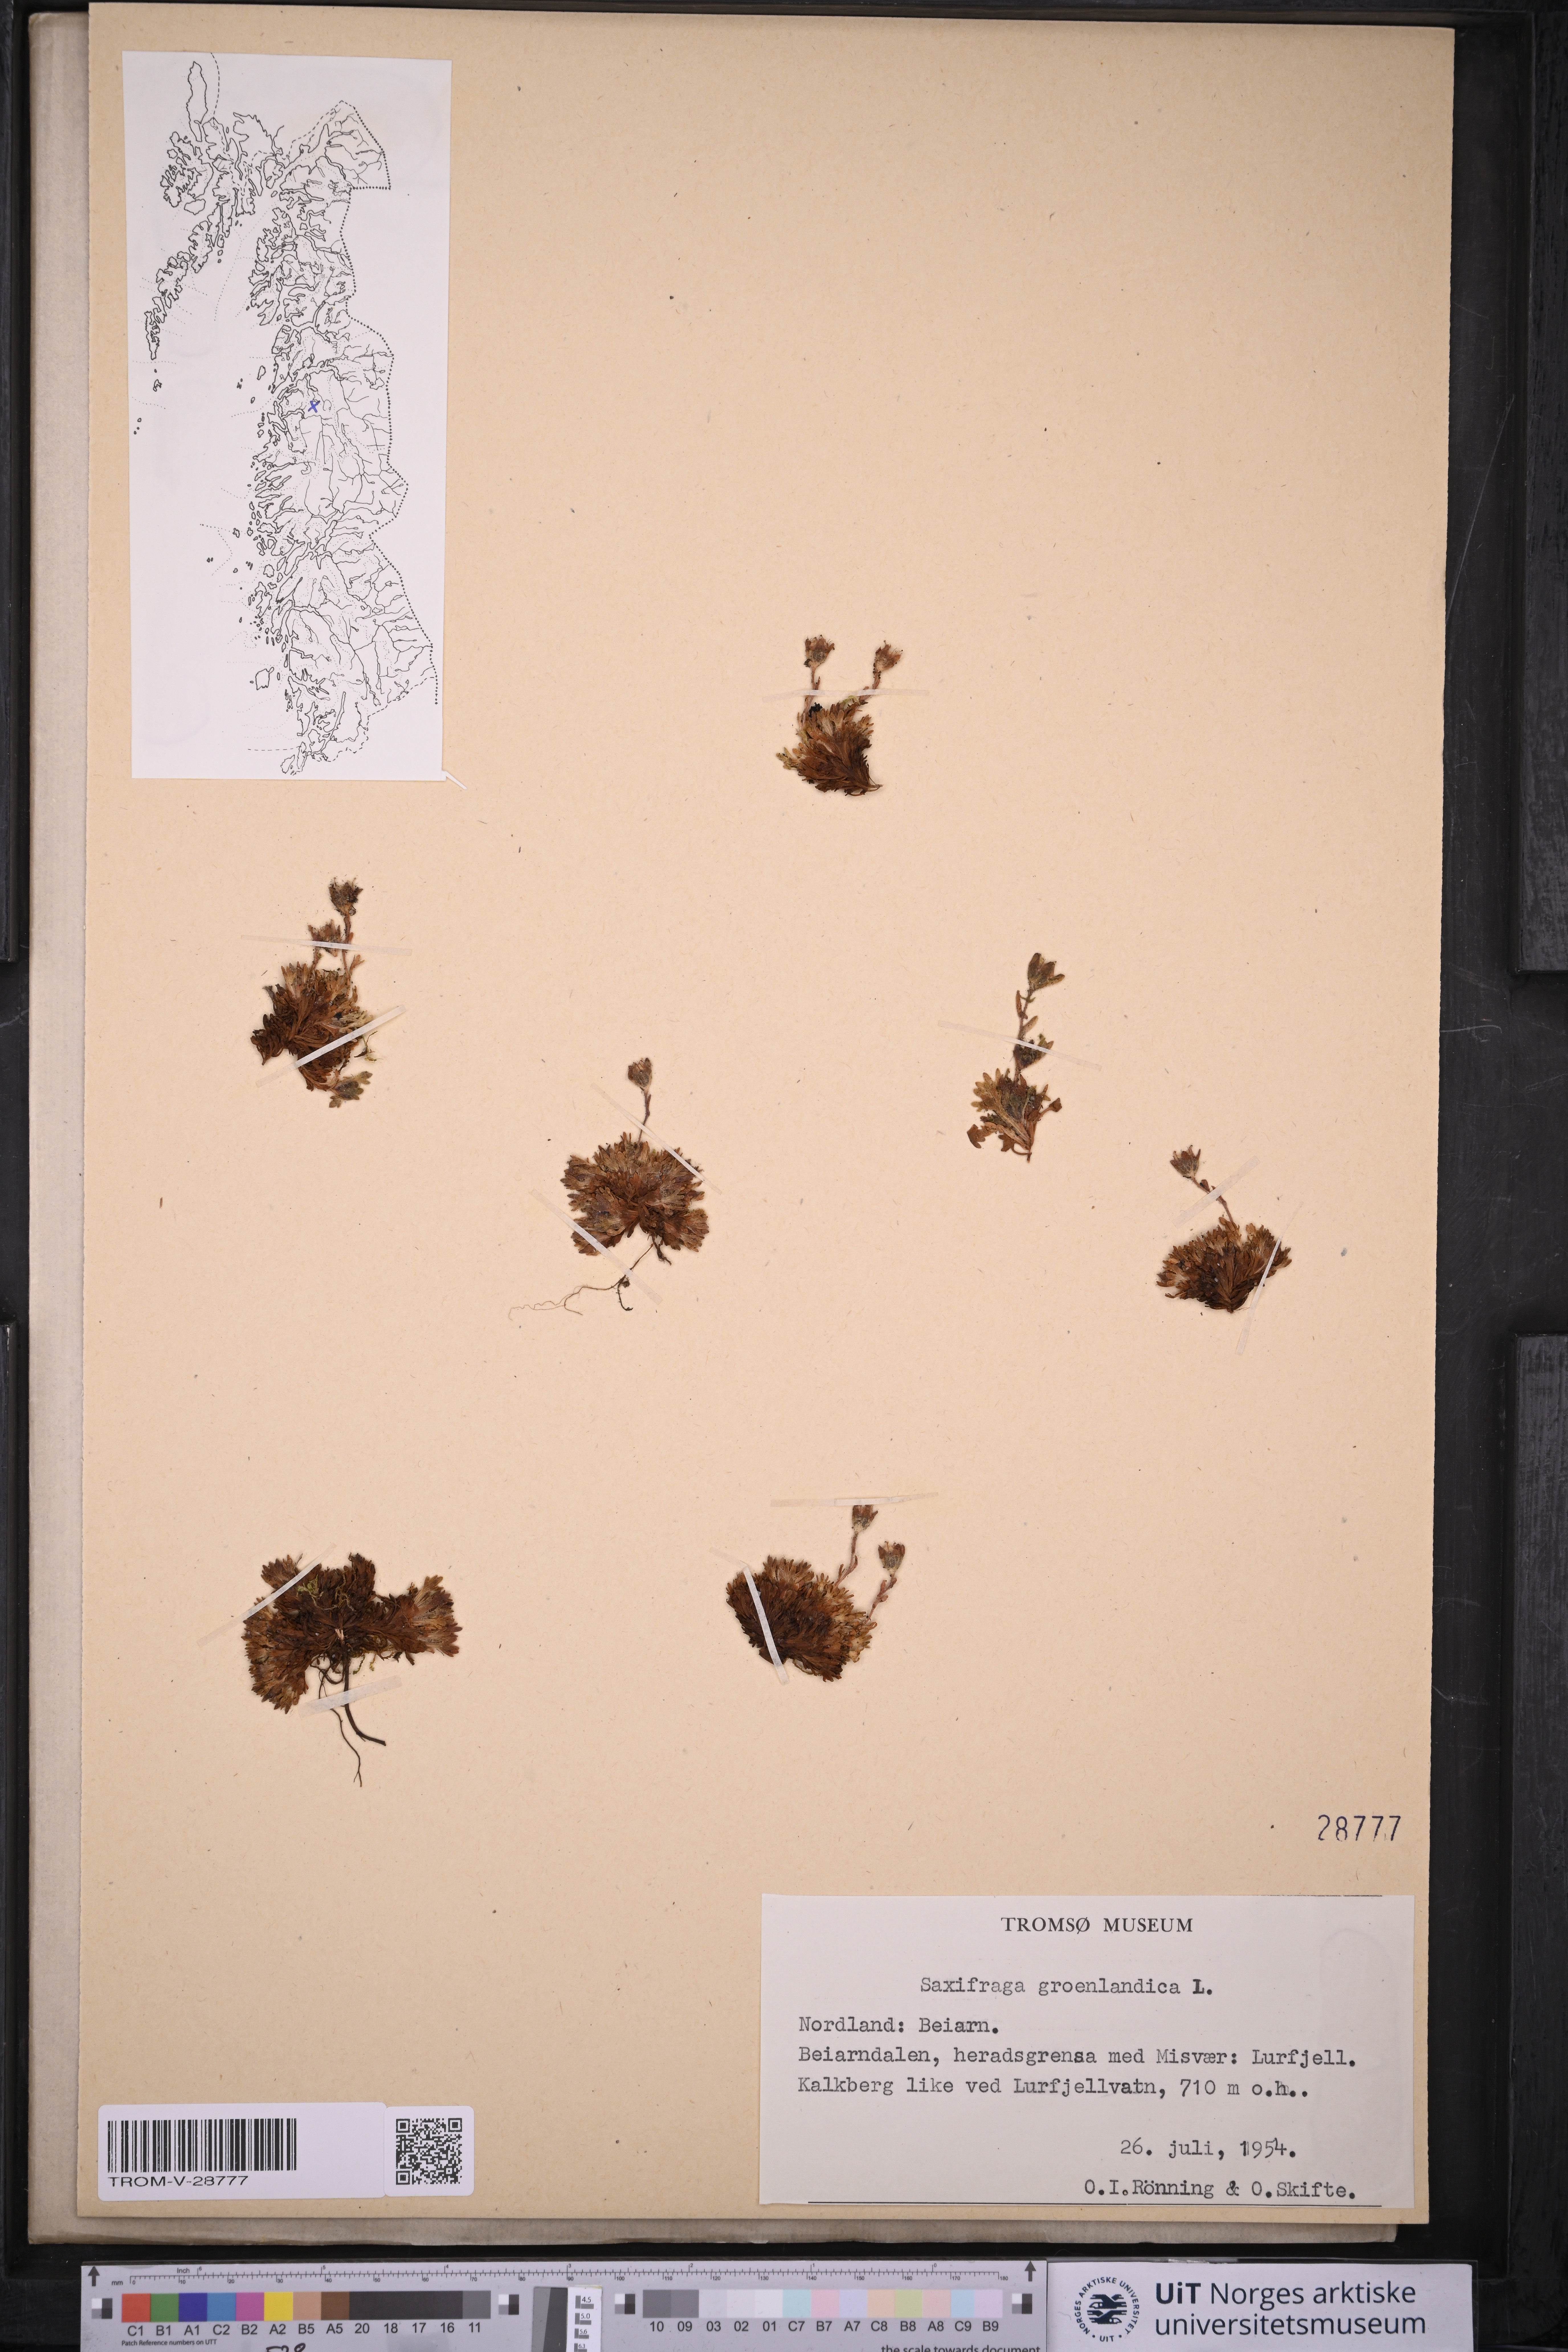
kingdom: Plantae
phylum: Tracheophyta
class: Magnoliopsida
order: Saxifragales
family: Saxifragaceae
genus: Saxifraga
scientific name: Saxifraga cespitosa
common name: Tufted saxifrage
